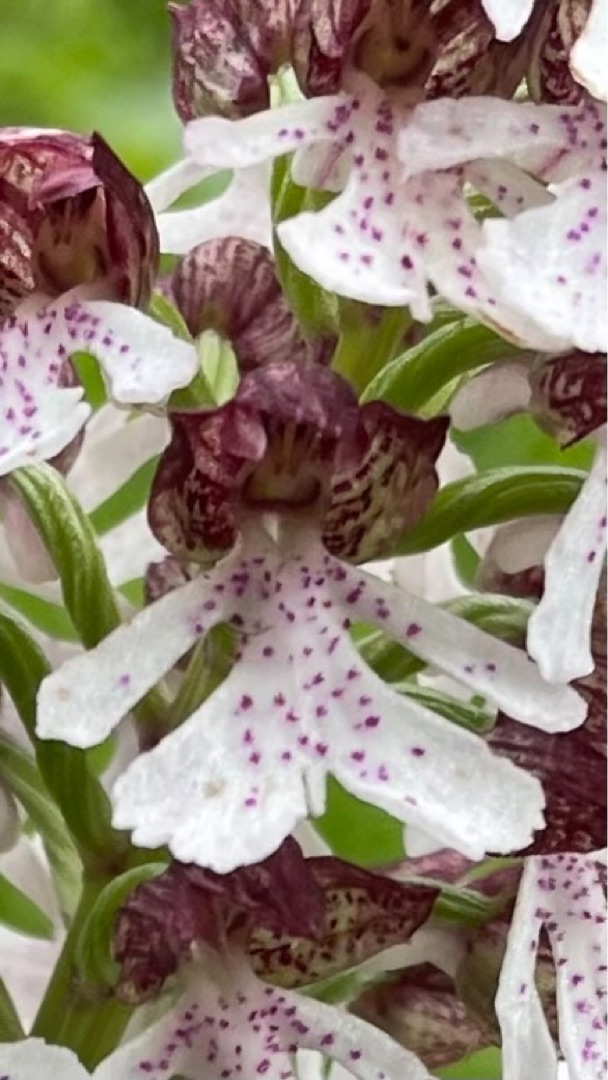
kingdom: Plantae
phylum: Tracheophyta
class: Liliopsida
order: Asparagales
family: Orchidaceae
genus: Orchis
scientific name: Orchis purpurea
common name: Stor gøgeurt
